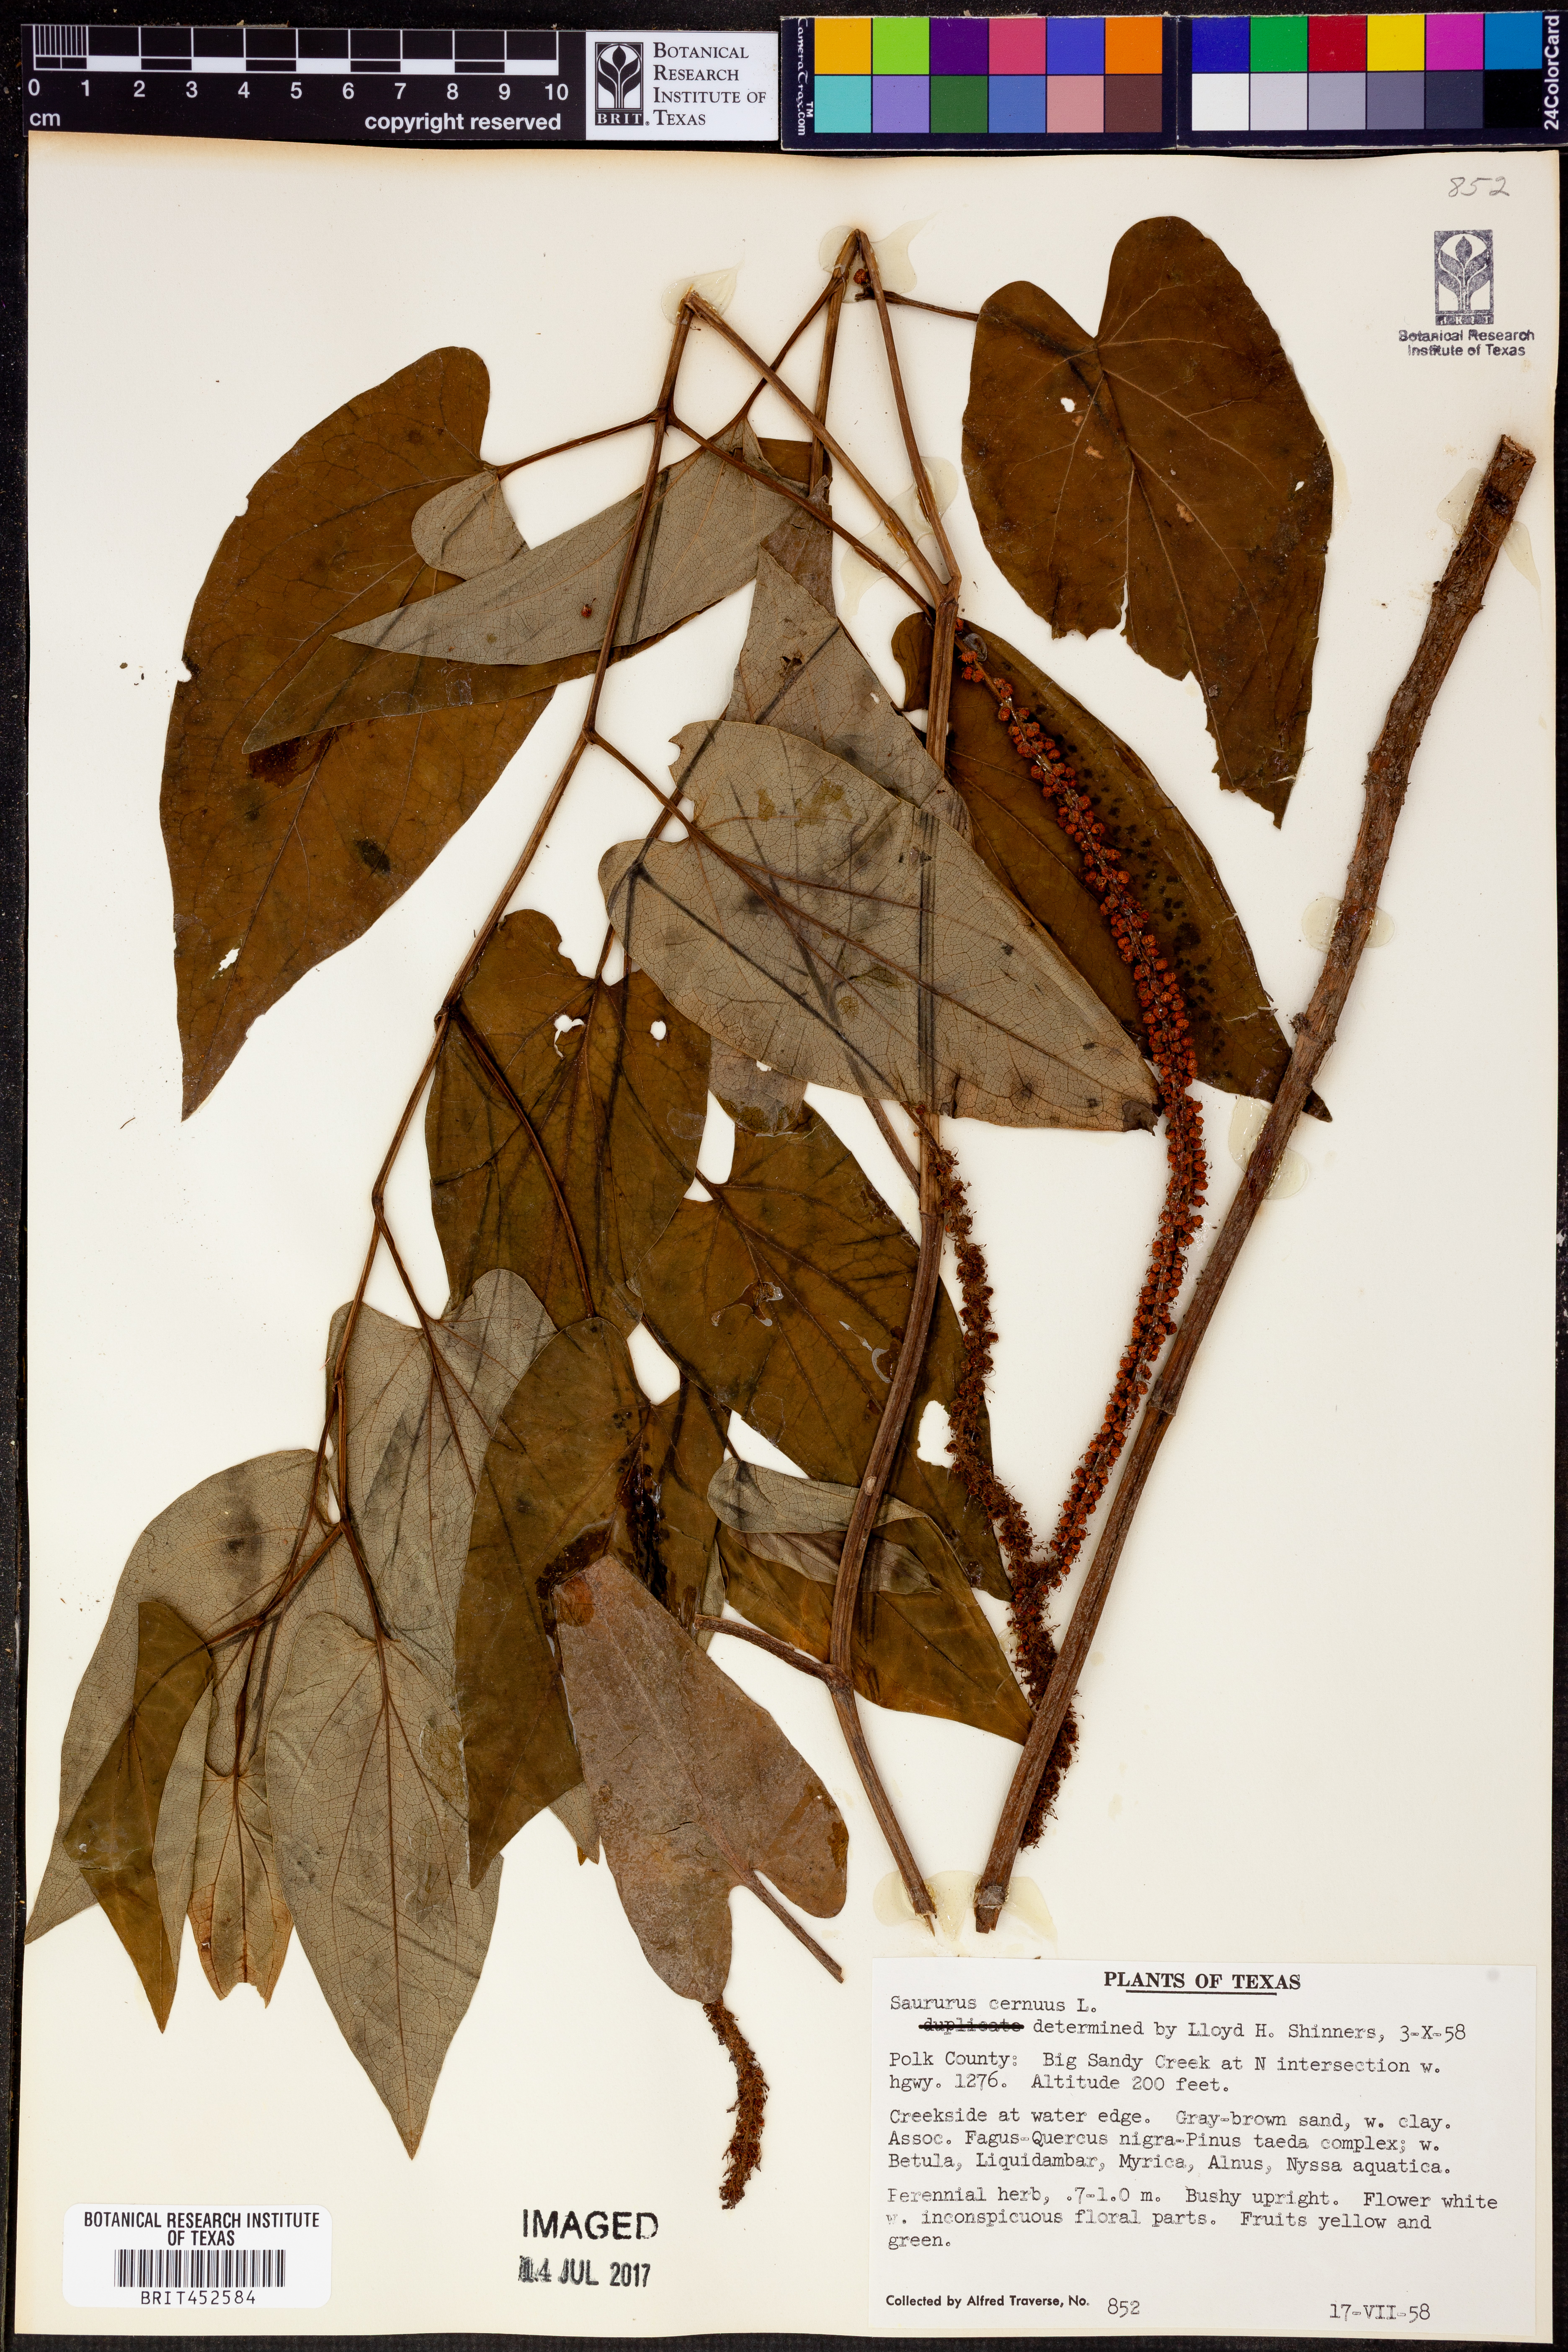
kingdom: Plantae
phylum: Tracheophyta
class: Magnoliopsida
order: Piperales
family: Saururaceae
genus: Saururus
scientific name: Saururus cernuus
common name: Lizard's-tail
